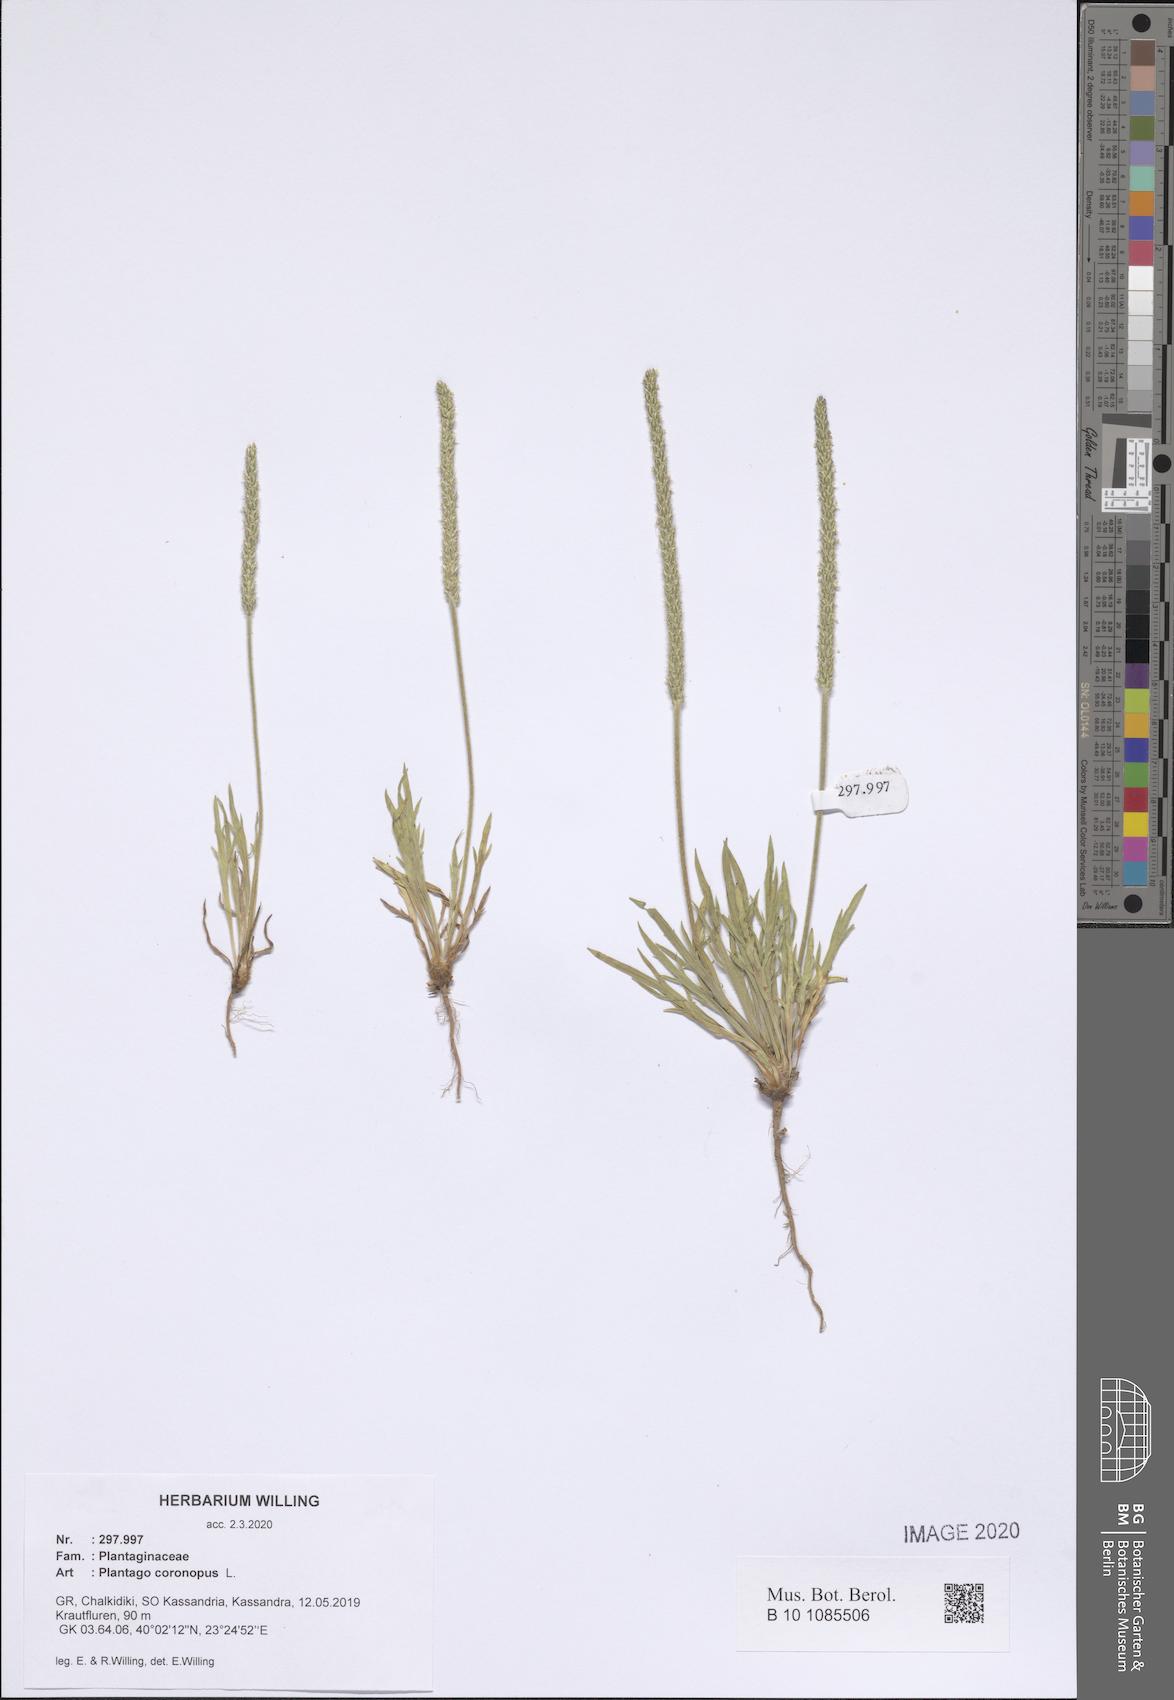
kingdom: Plantae
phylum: Tracheophyta
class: Magnoliopsida
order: Lamiales
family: Plantaginaceae
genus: Plantago
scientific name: Plantago coronopus
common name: Buck's-horn plantain
